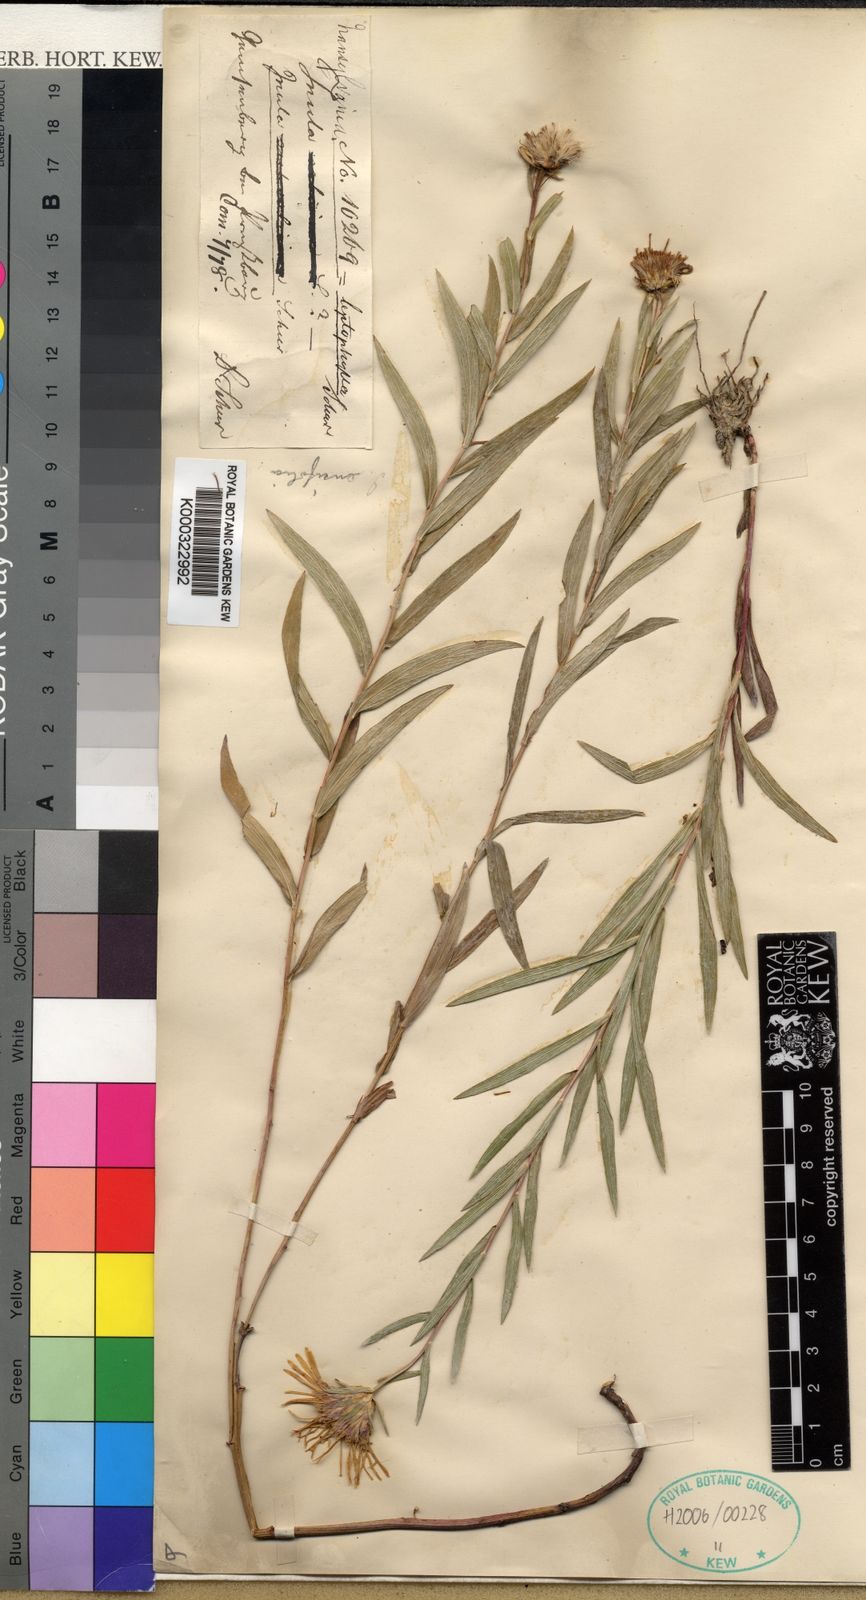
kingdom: Plantae
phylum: Tracheophyta
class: Magnoliopsida
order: Asterales
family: Asteraceae
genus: Pentanema
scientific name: Pentanema ensifolium
